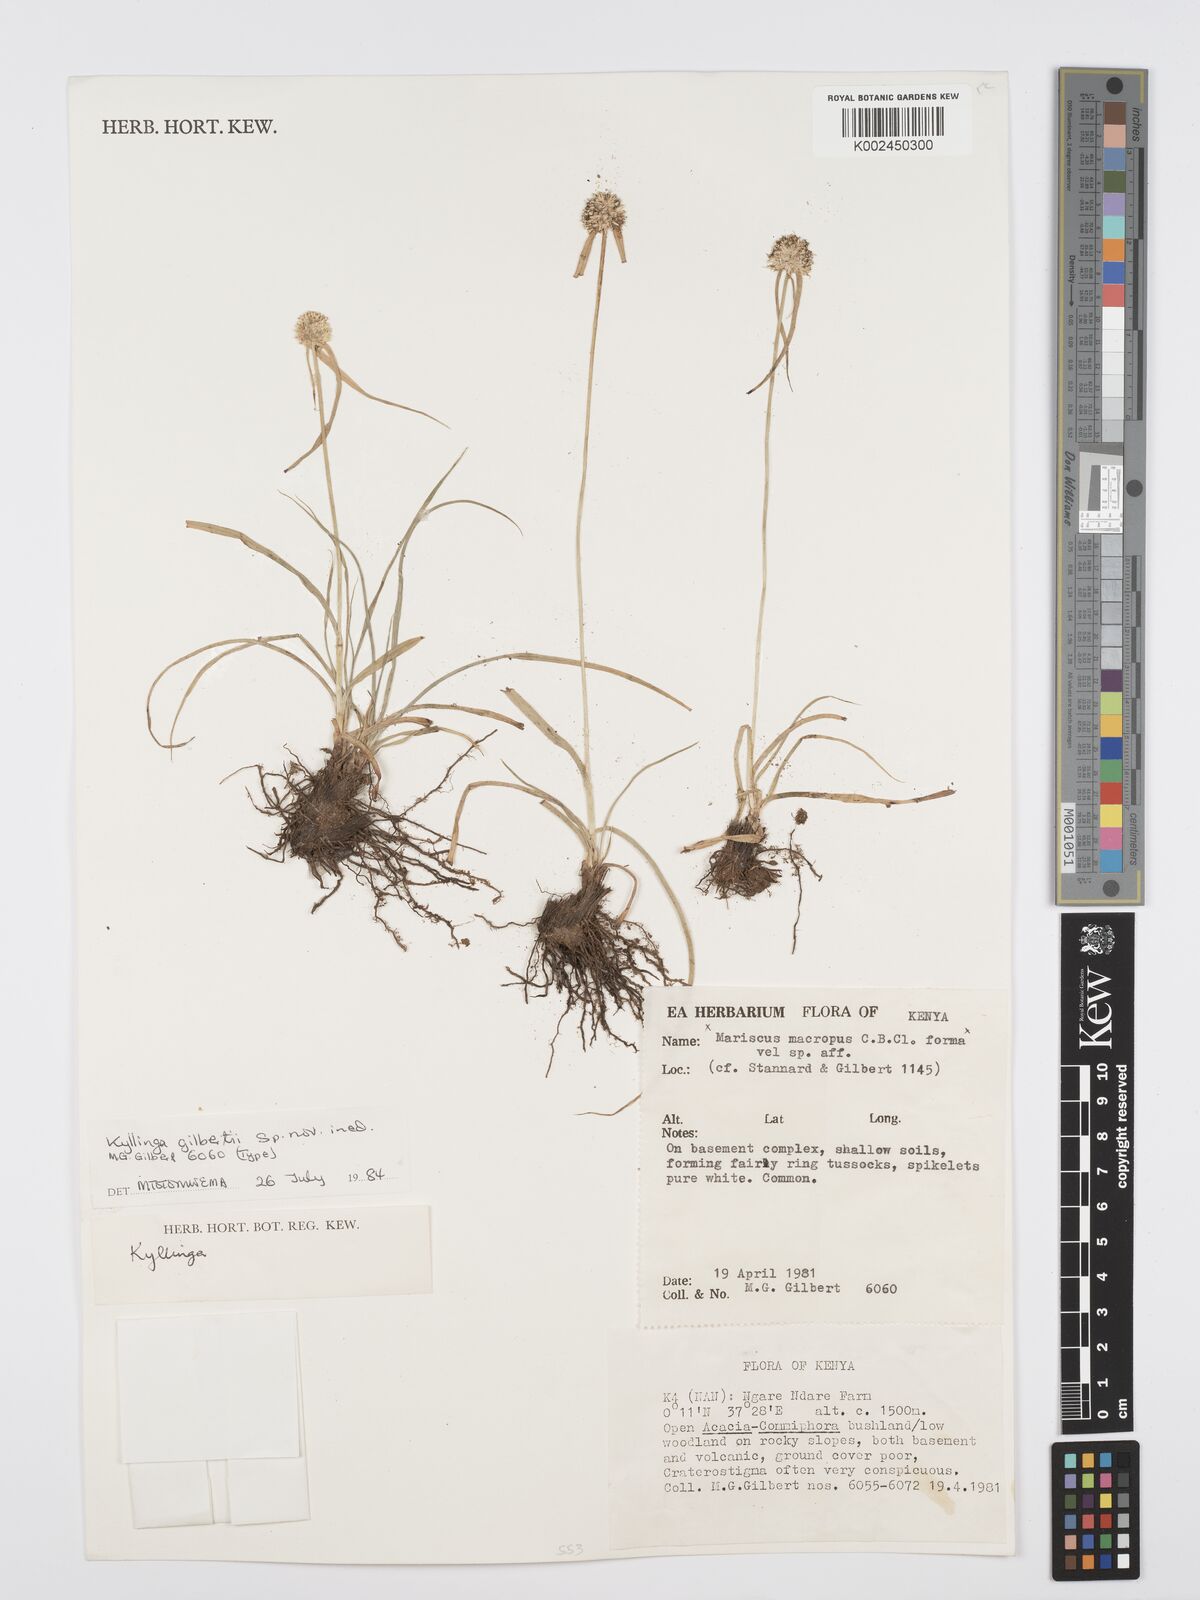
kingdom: Plantae
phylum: Tracheophyta
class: Liliopsida
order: Poales
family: Cyperaceae
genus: Cyperus
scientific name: Cyperus
